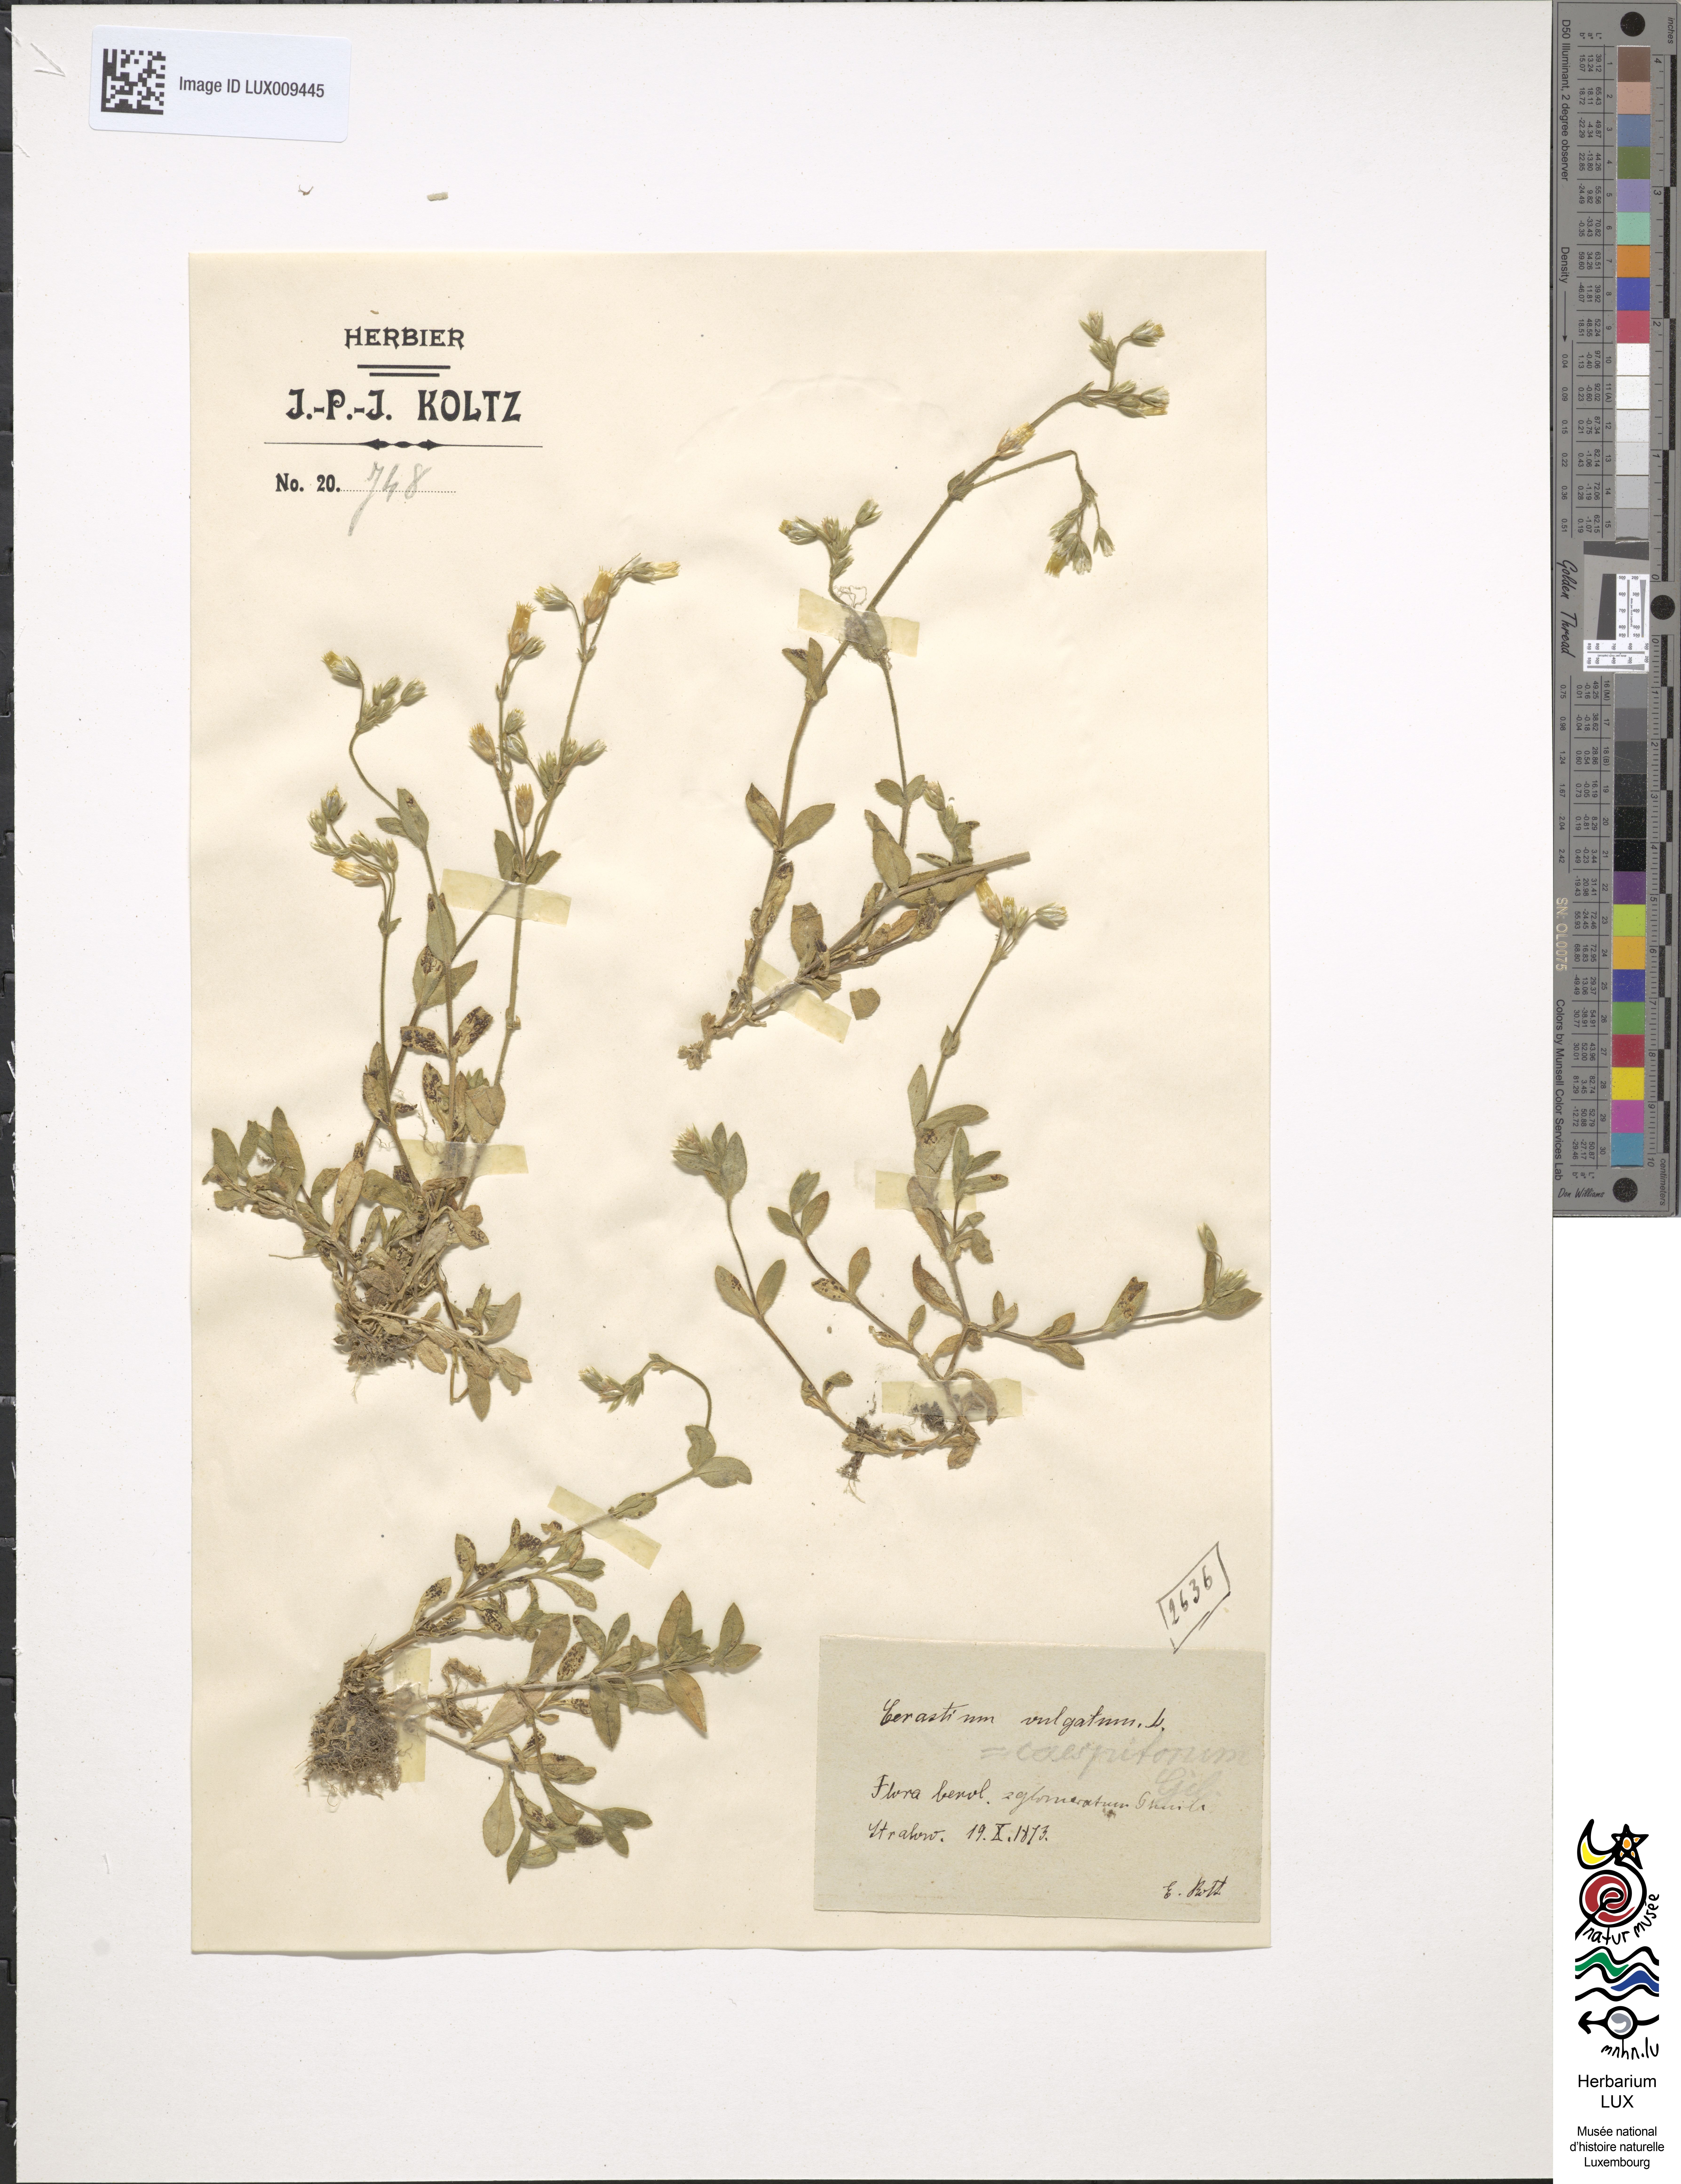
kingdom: Plantae
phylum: Tracheophyta
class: Magnoliopsida
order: Caryophyllales
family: Caryophyllaceae
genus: Cerastium
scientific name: Cerastium glomeratum
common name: Sticky chickweed
